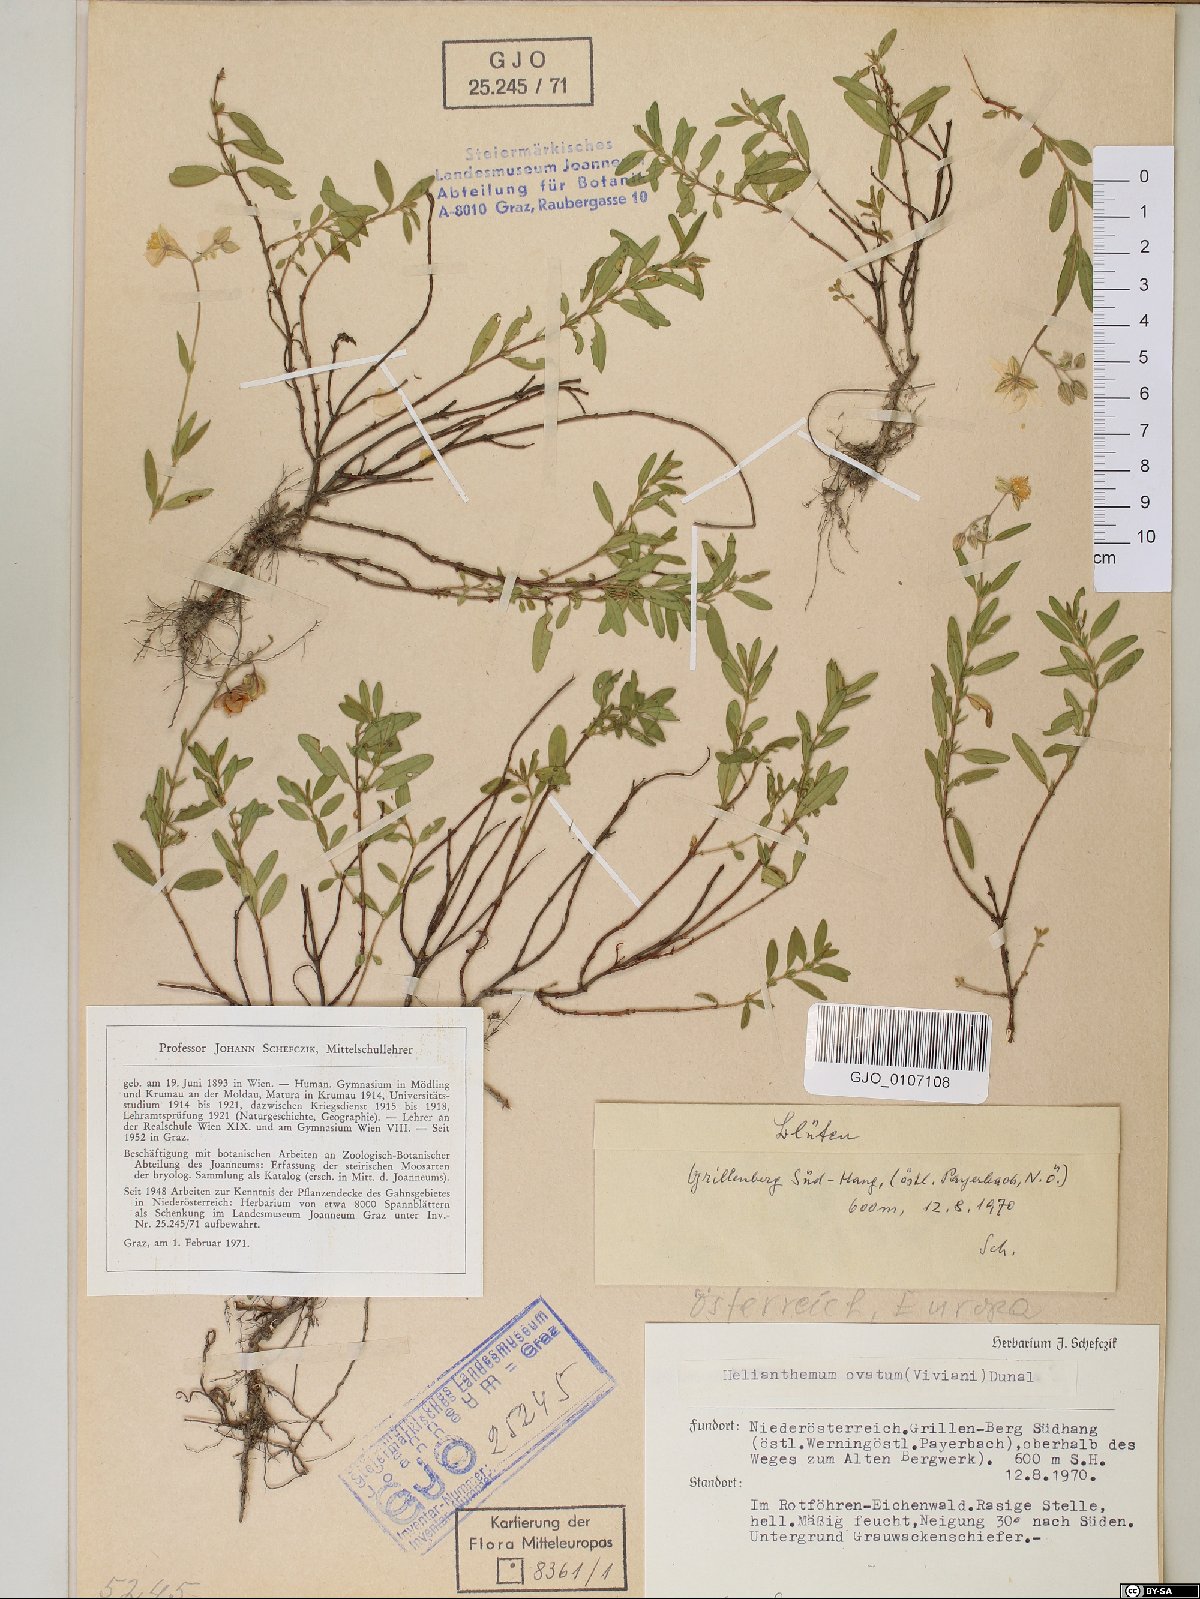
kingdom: Plantae
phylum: Tracheophyta
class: Magnoliopsida
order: Malvales
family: Cistaceae
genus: Helianthemum
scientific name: Helianthemum nummularium
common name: Common rock-rose
